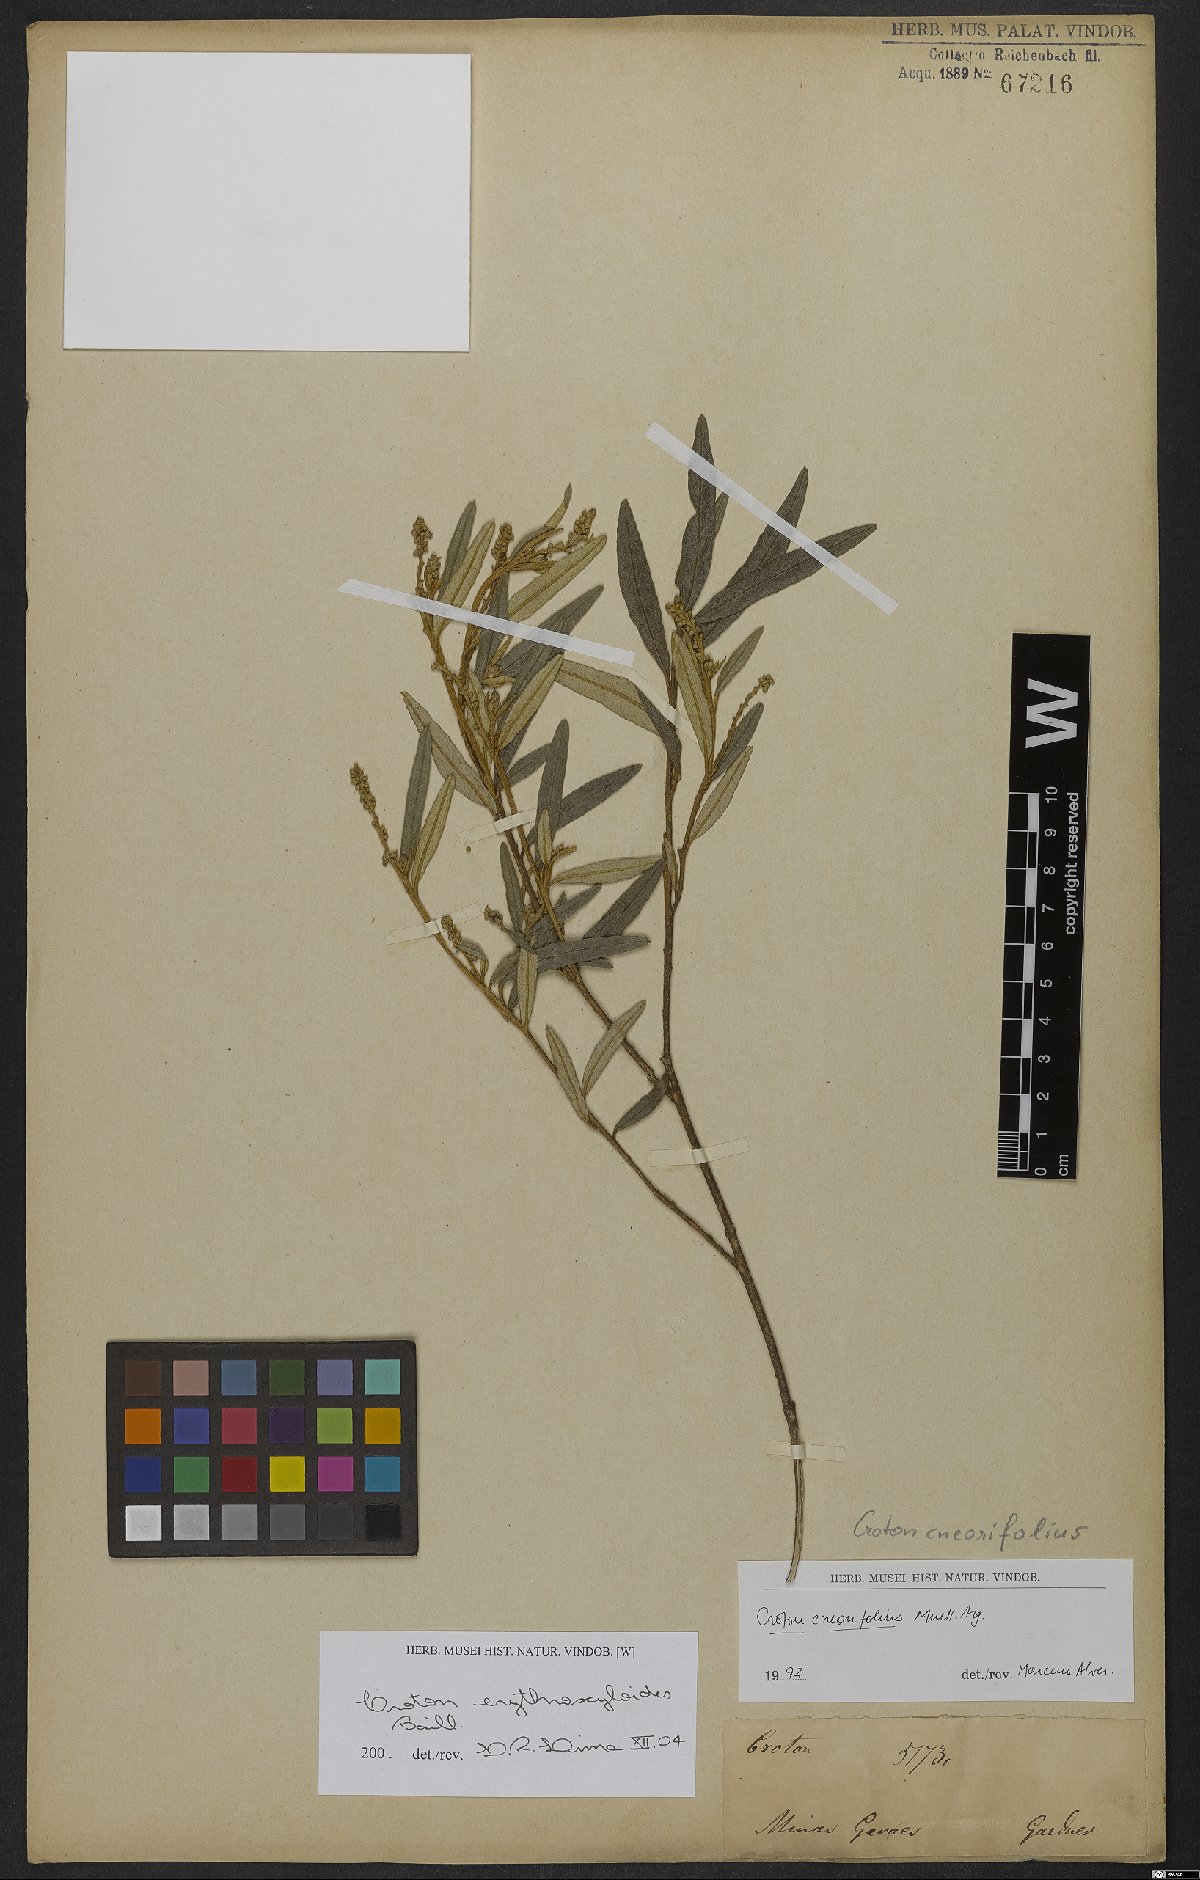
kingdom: Plantae
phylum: Tracheophyta
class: Magnoliopsida
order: Malpighiales
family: Euphorbiaceae
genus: Croton
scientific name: Croton erythroxyloides
